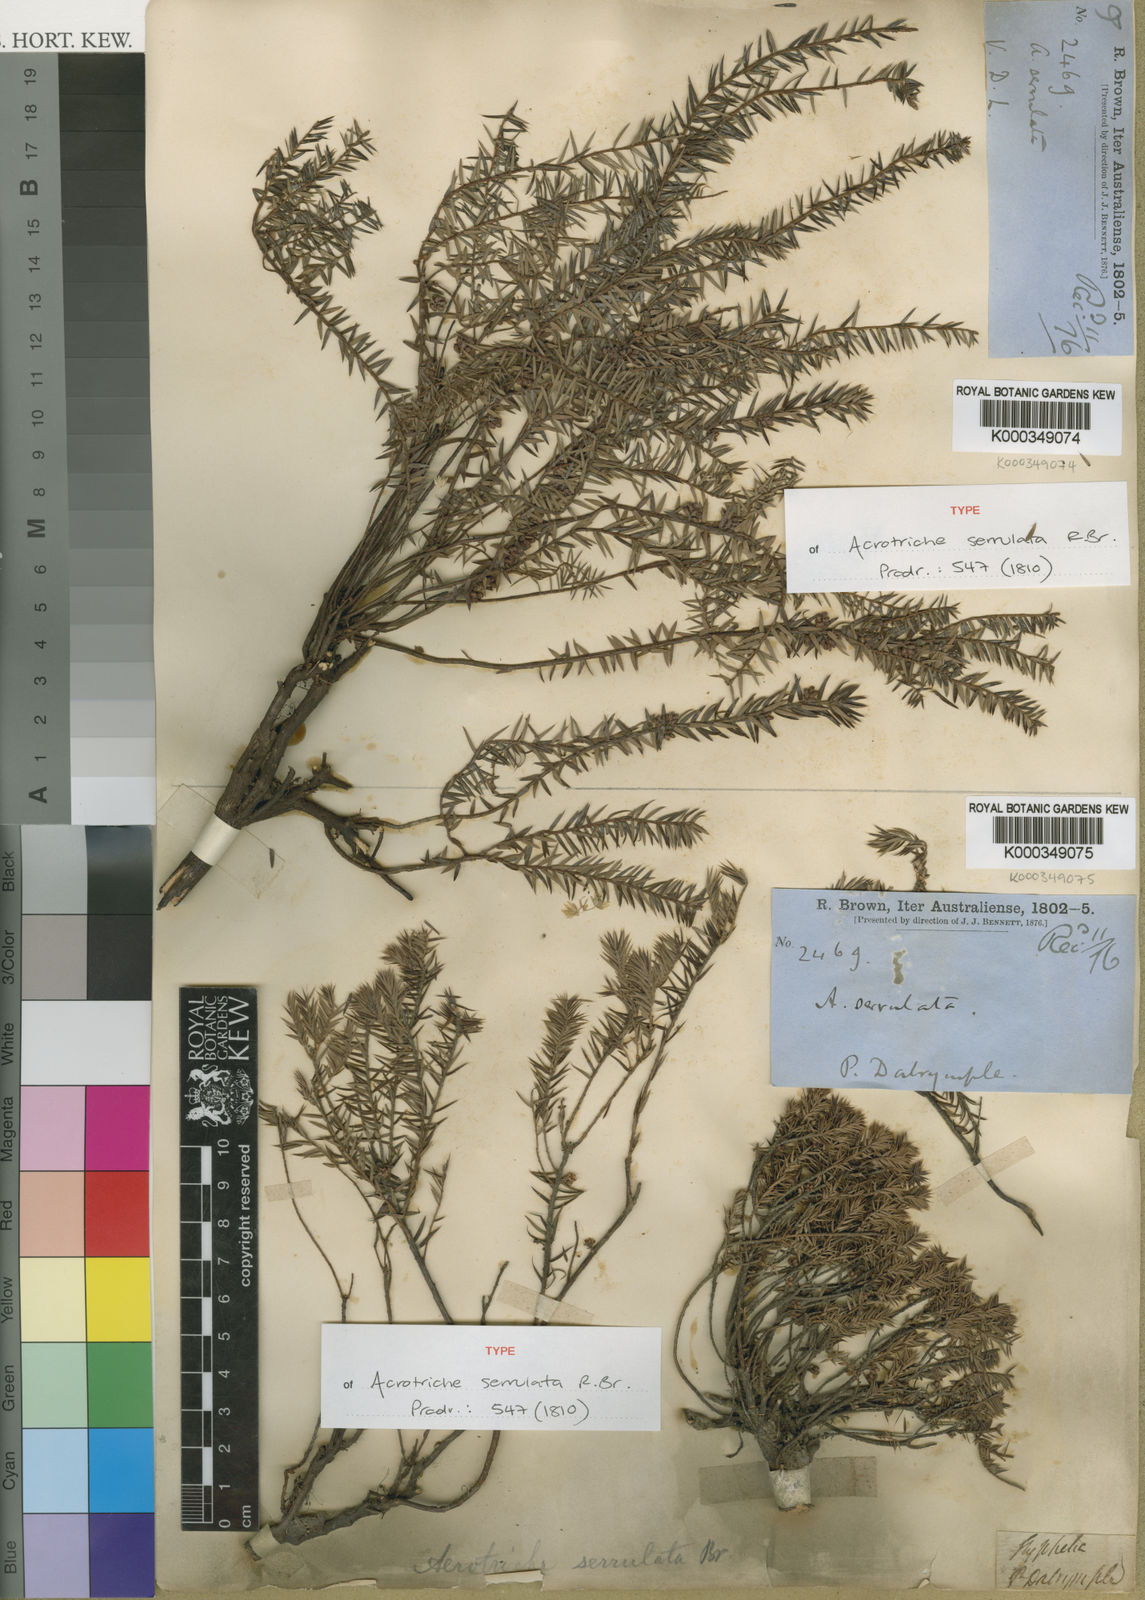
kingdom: Plantae
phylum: Tracheophyta
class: Magnoliopsida
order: Ericales
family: Ericaceae
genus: Acrotriche
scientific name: Acrotriche serrulata
